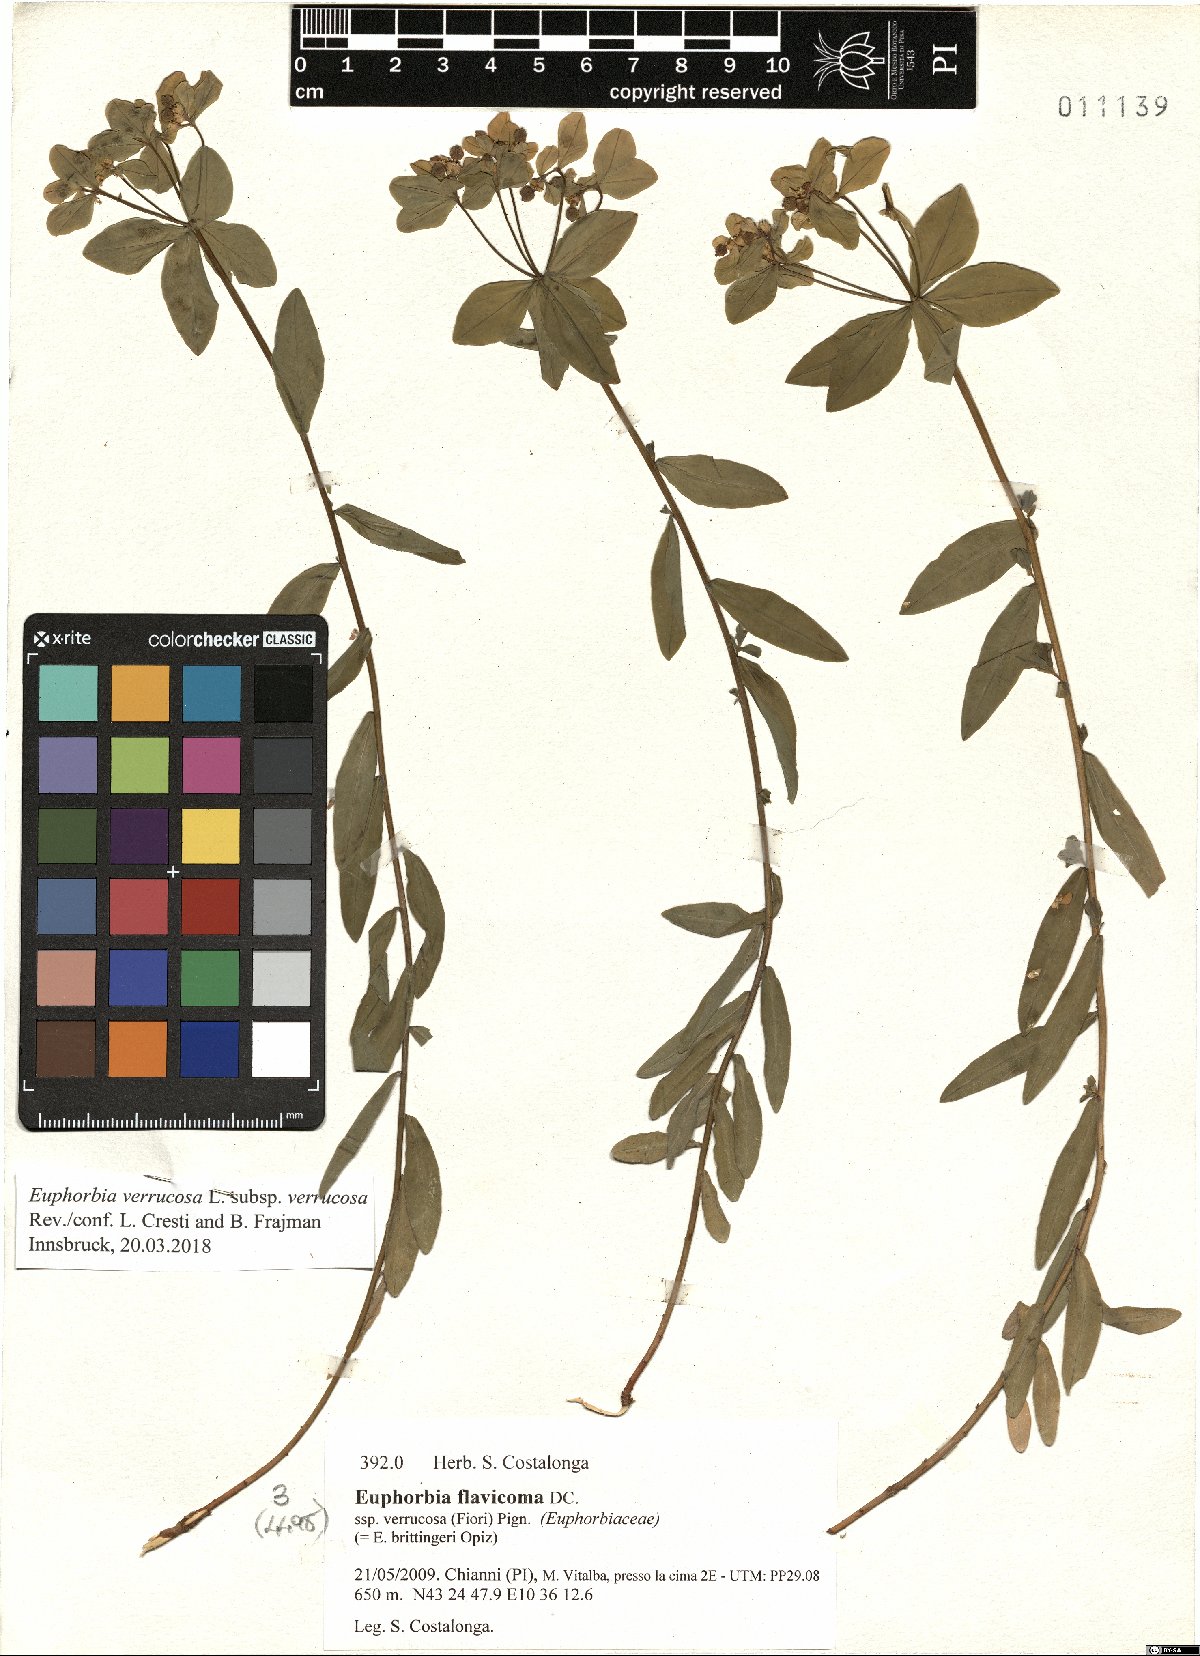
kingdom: Plantae
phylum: Tracheophyta
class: Magnoliopsida
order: Malpighiales
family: Euphorbiaceae
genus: Euphorbia
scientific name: Euphorbia verrucosa
